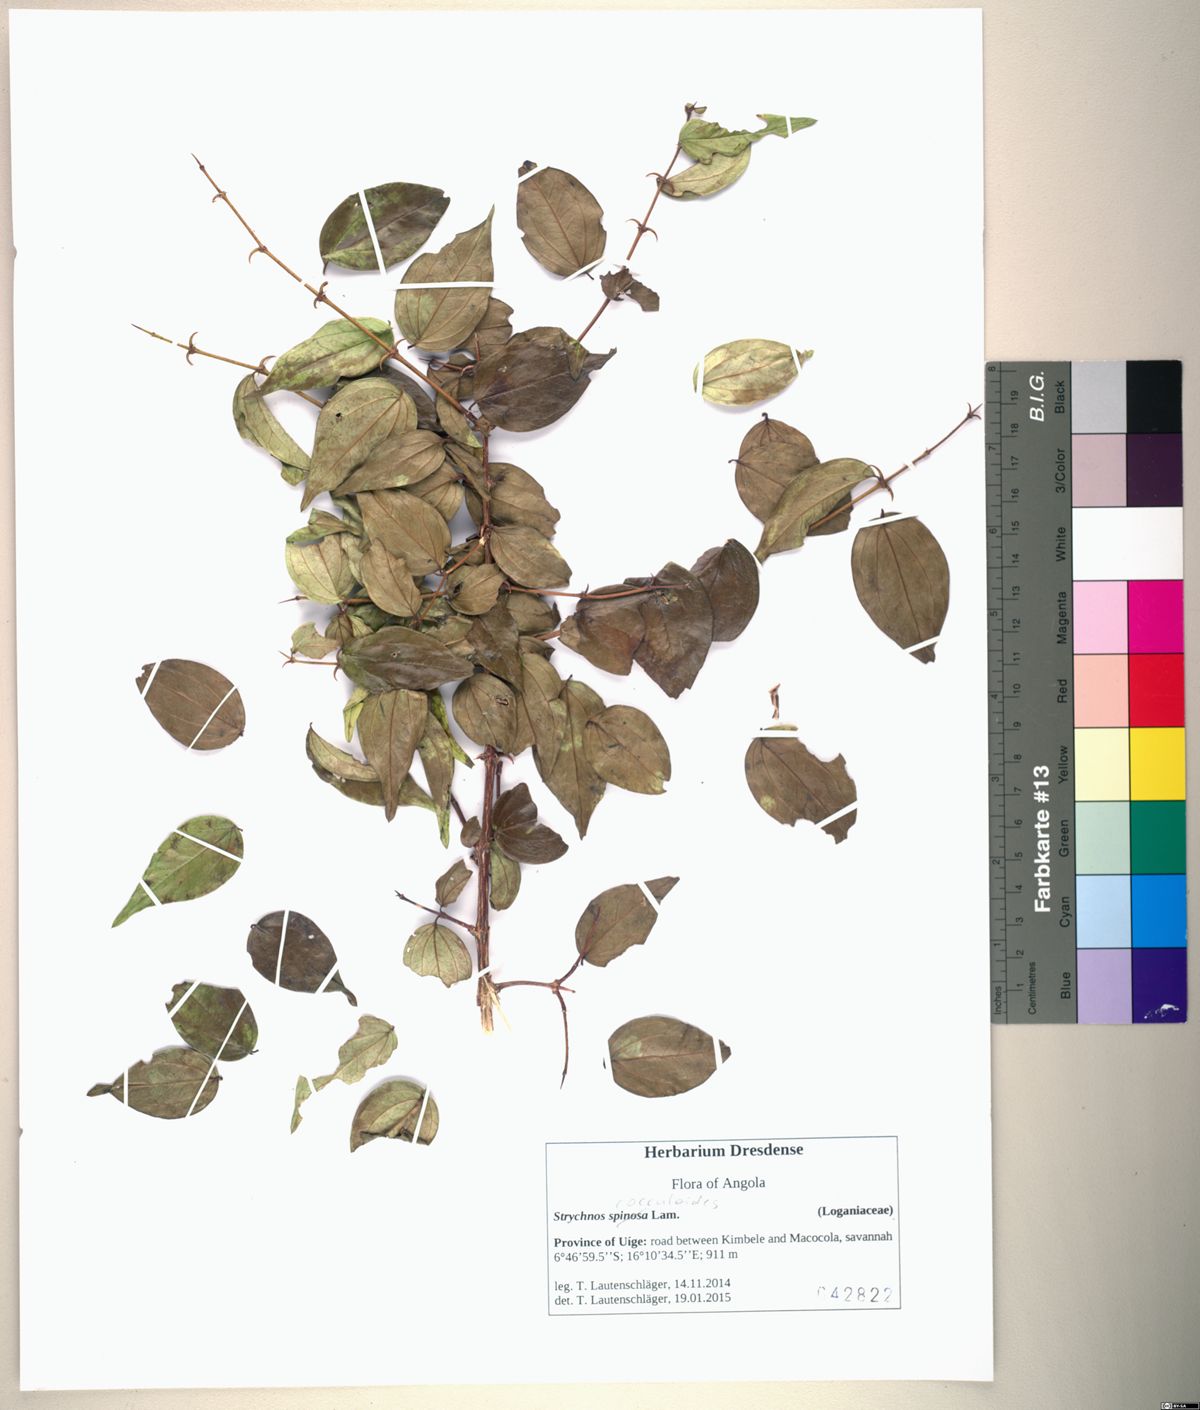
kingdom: Plantae
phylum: Tracheophyta
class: Magnoliopsida
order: Gentianales
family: Loganiaceae
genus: Strychnos
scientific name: Strychnos cocculoides
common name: Corky-bark monkey-orange
